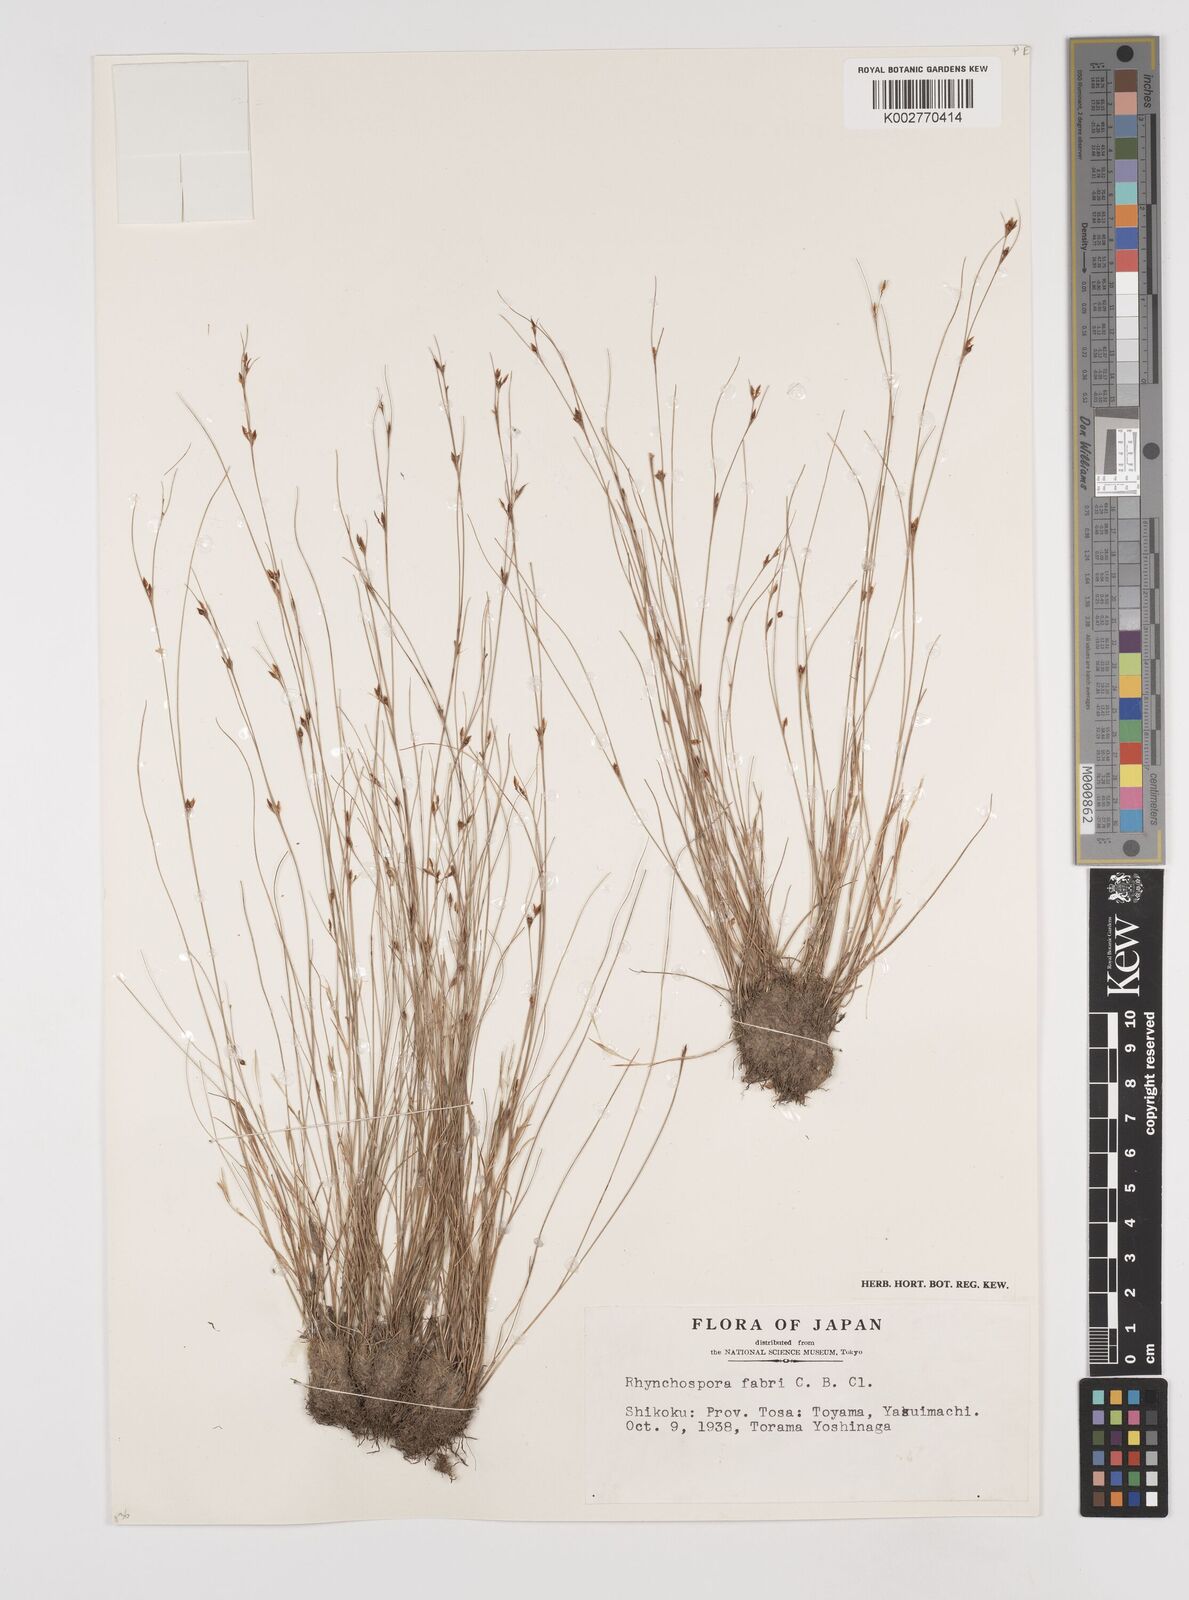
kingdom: Plantae
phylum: Tracheophyta
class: Liliopsida
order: Poales
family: Cyperaceae
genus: Rhynchospora
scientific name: Rhynchospora faberi
